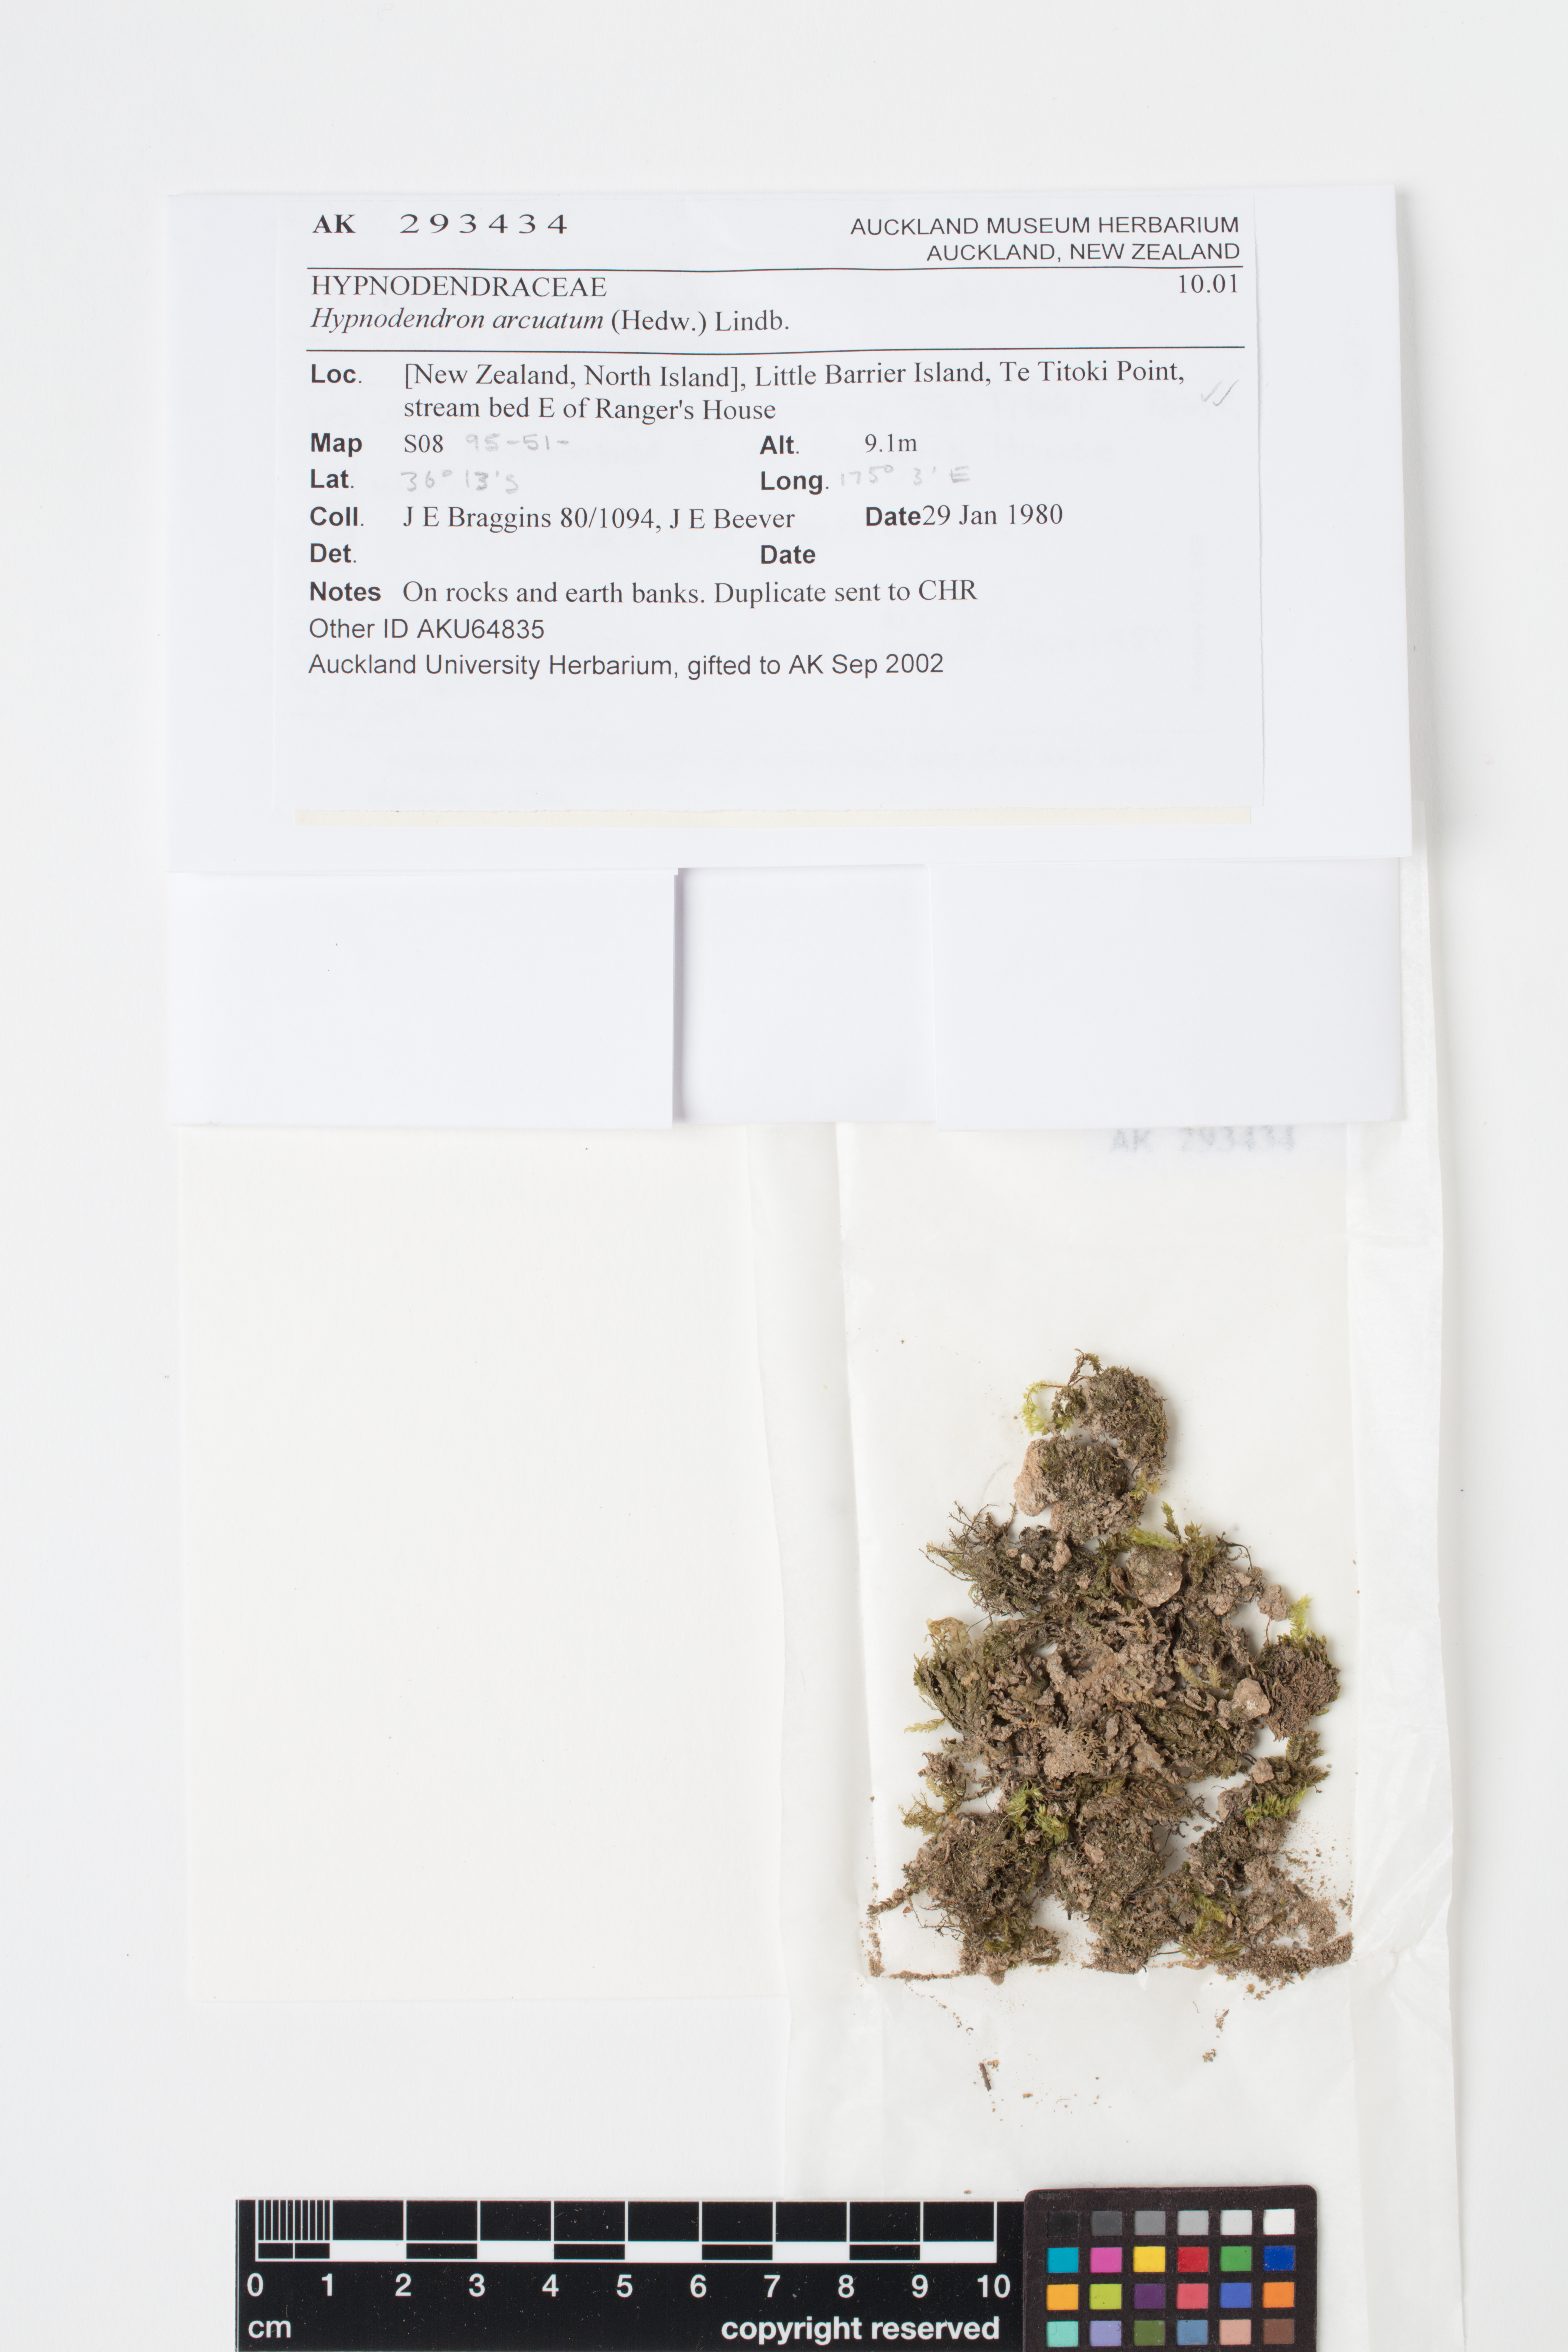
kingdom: Plantae
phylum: Bryophyta
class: Bryopsida
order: Hypnodendrales
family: Spiridentaceae
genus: Hypnodendron
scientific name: Hypnodendron arcuatum
